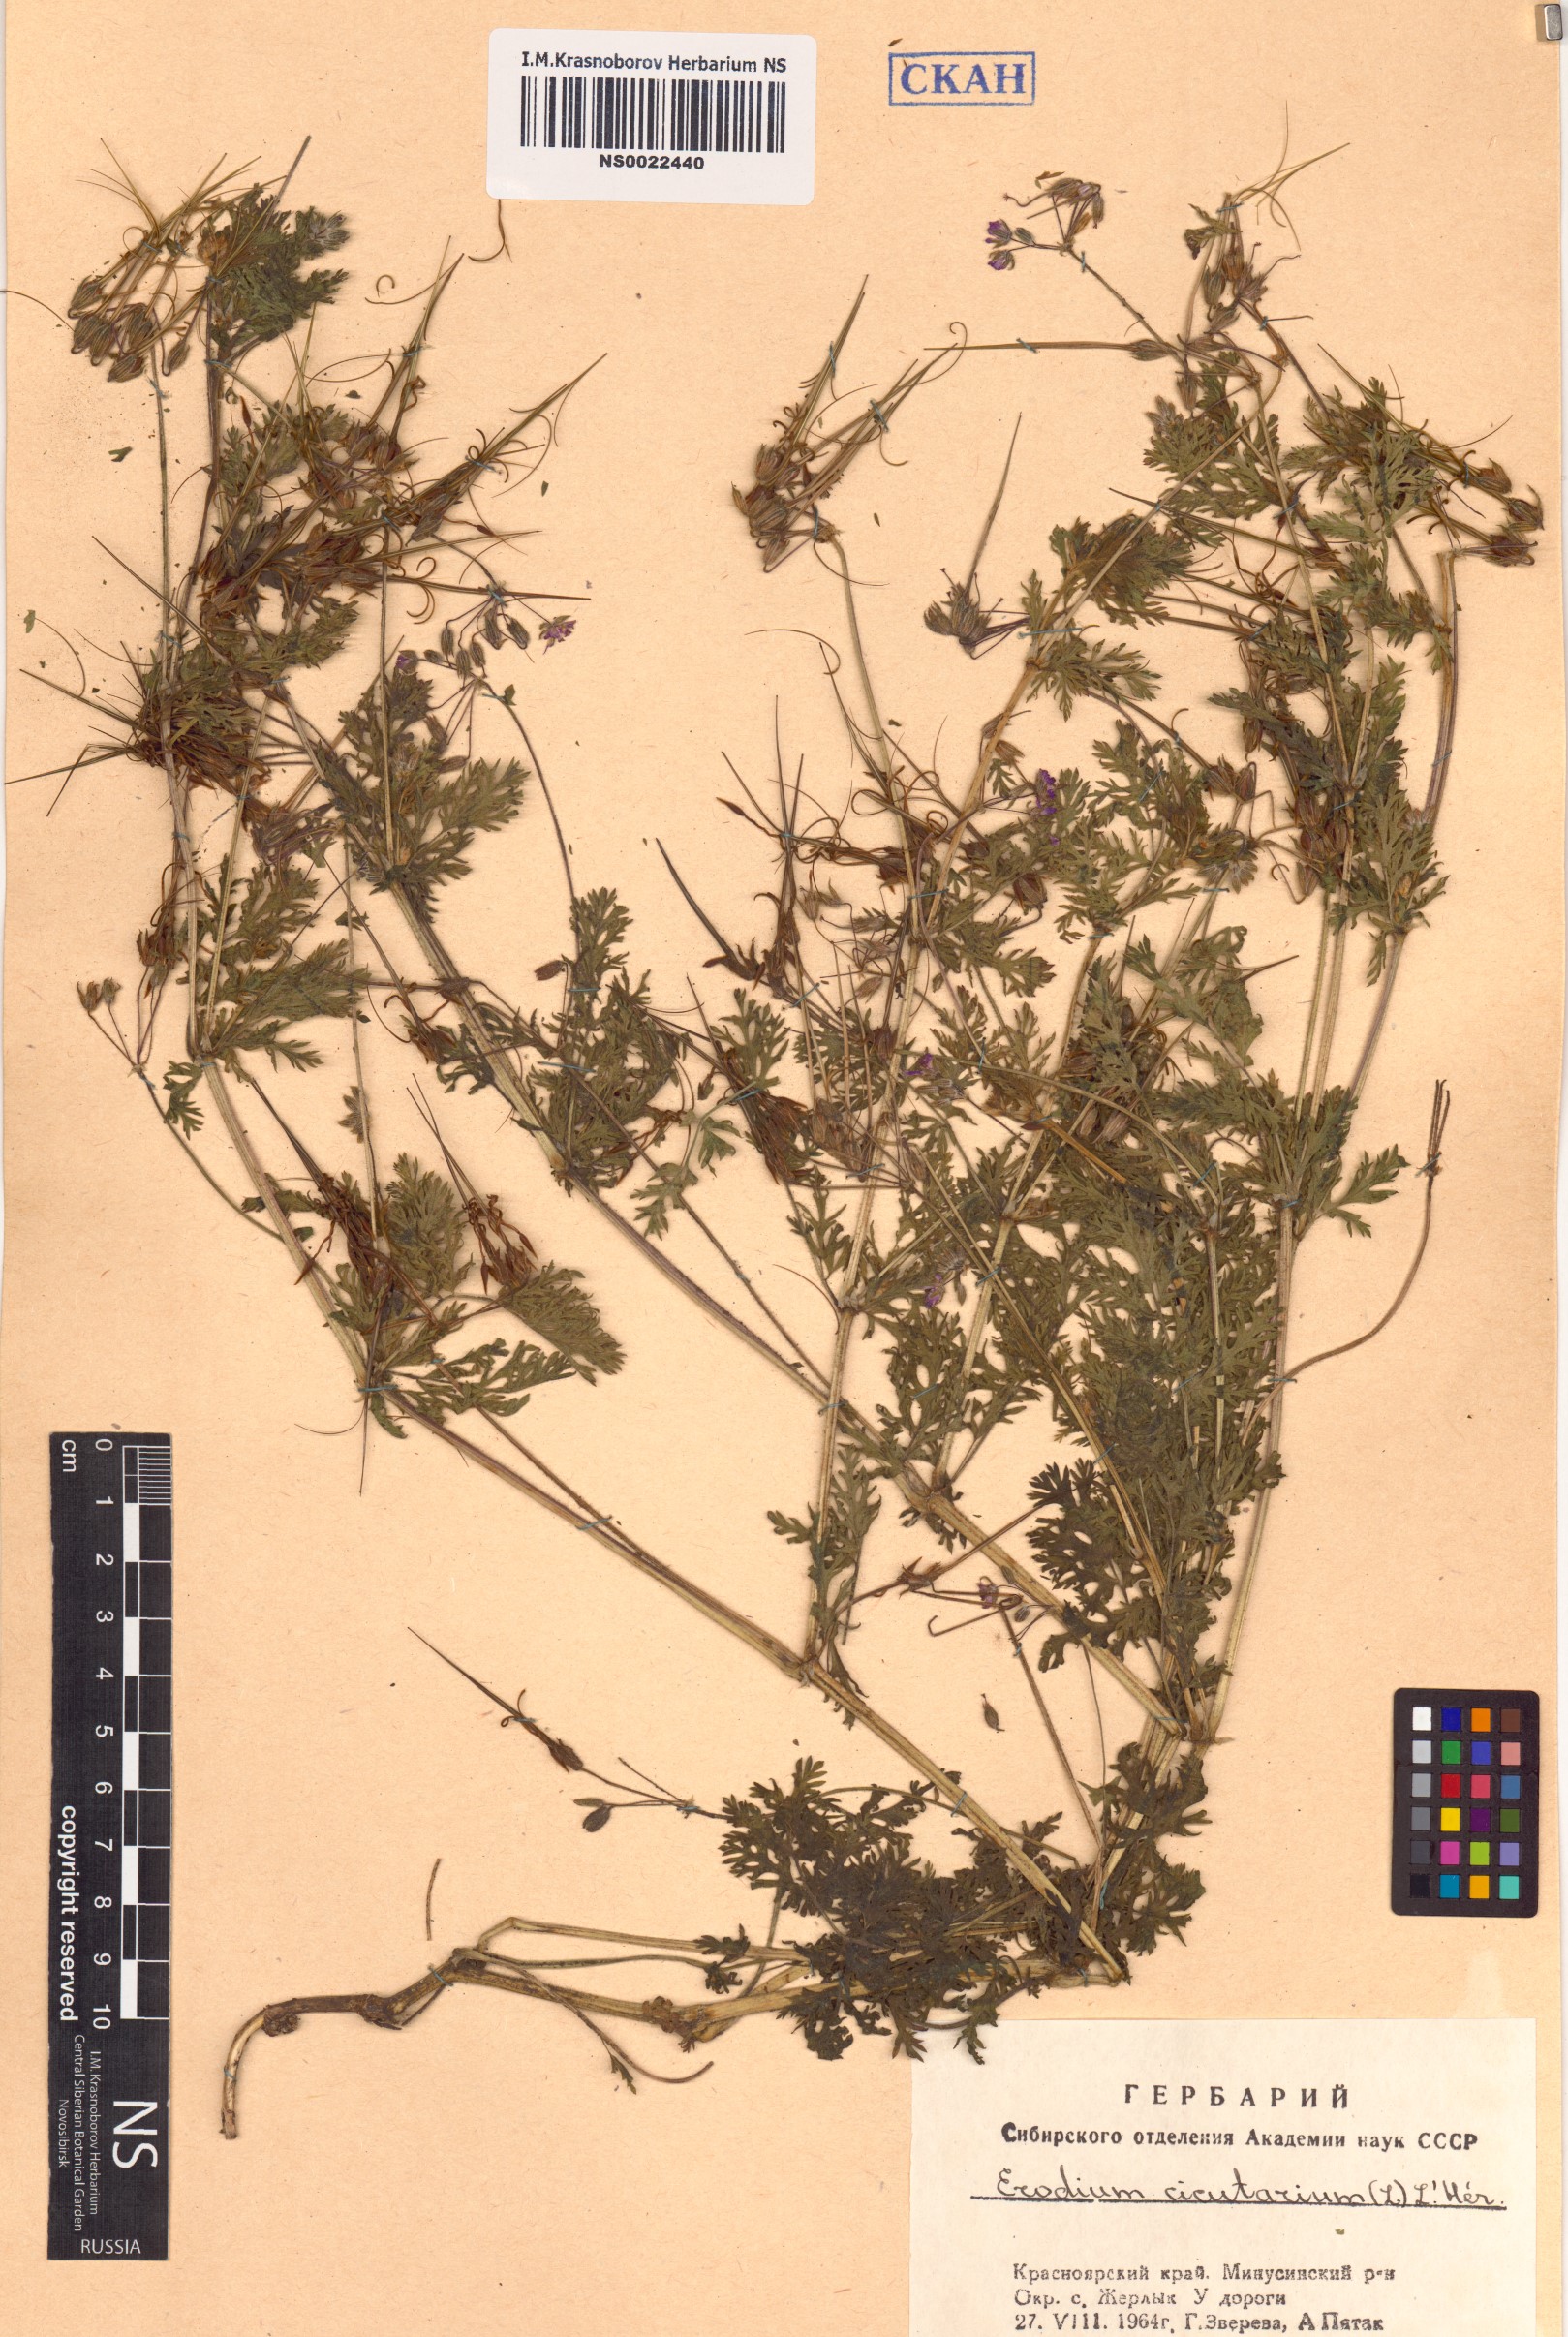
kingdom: Plantae
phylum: Tracheophyta
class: Magnoliopsida
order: Geraniales
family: Geraniaceae
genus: Erodium
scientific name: Erodium cicutarium
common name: Common stork's-bill
